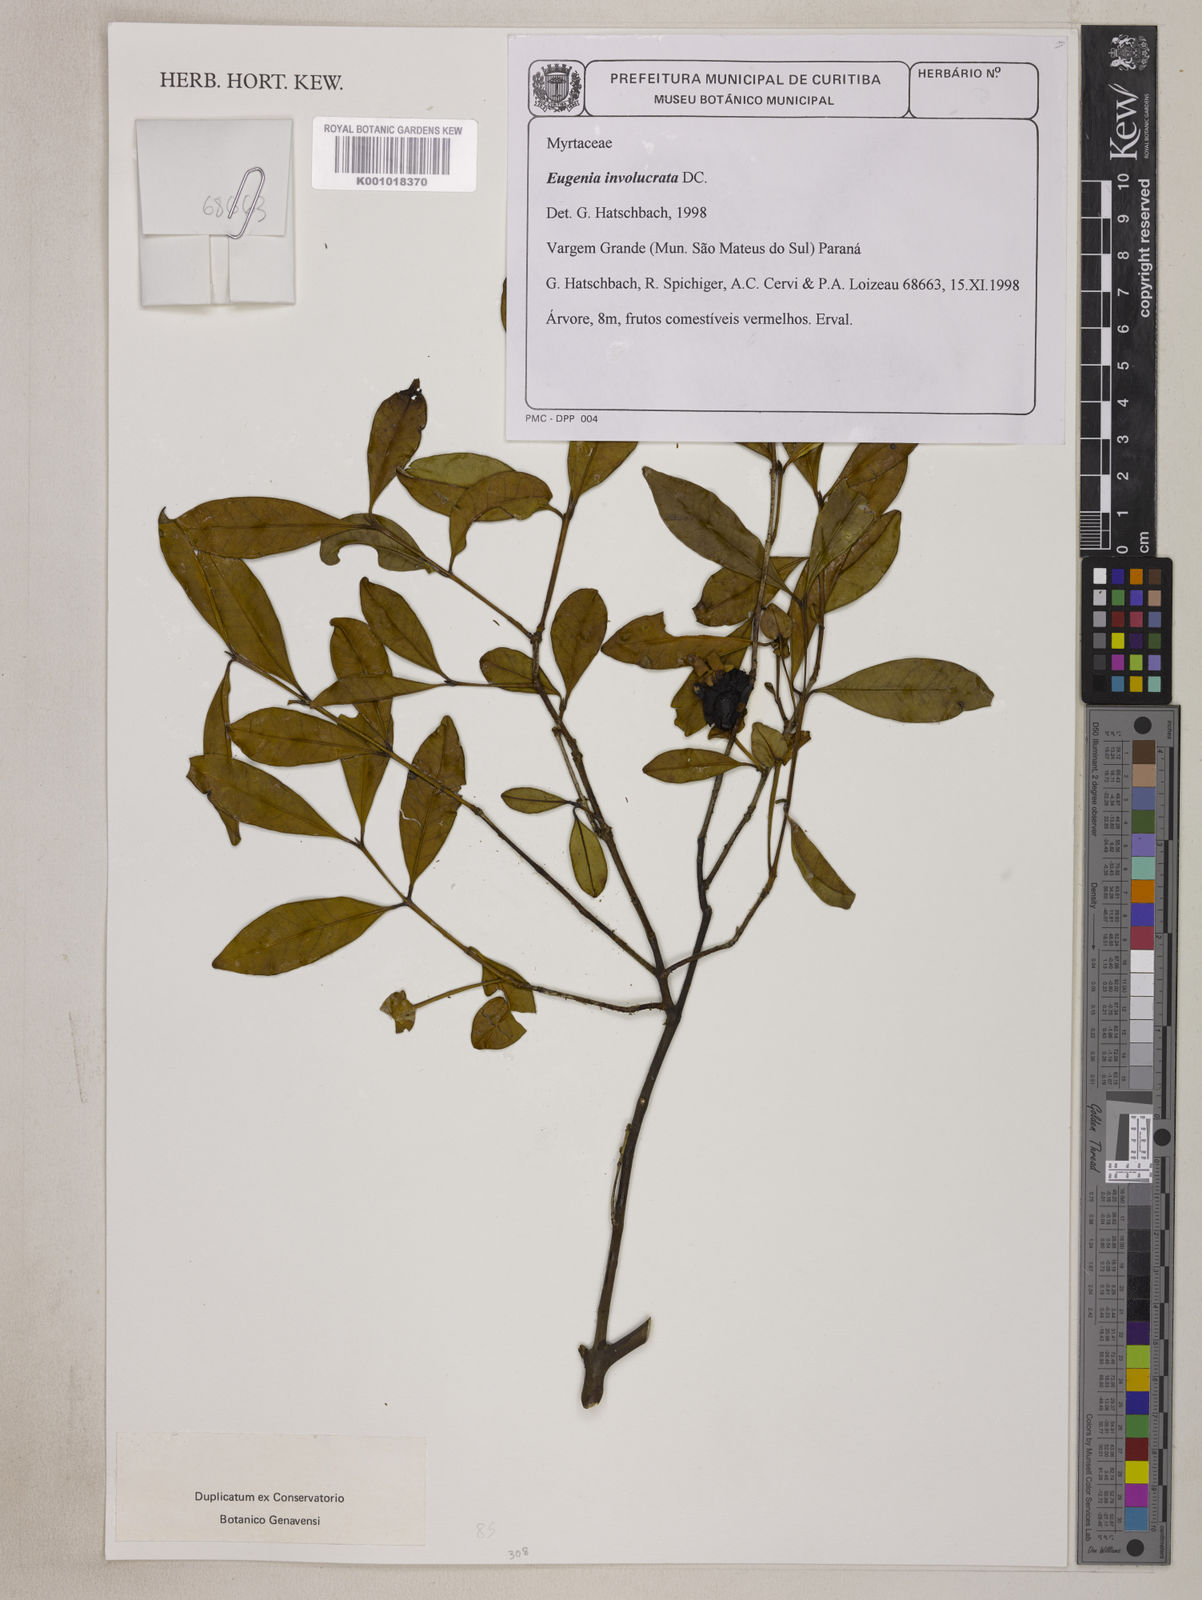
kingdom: Plantae
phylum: Tracheophyta
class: Magnoliopsida
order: Myrtales
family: Myrtaceae
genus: Eugenia
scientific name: Eugenia involucrata
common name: Cherry-of-the-rio grande
